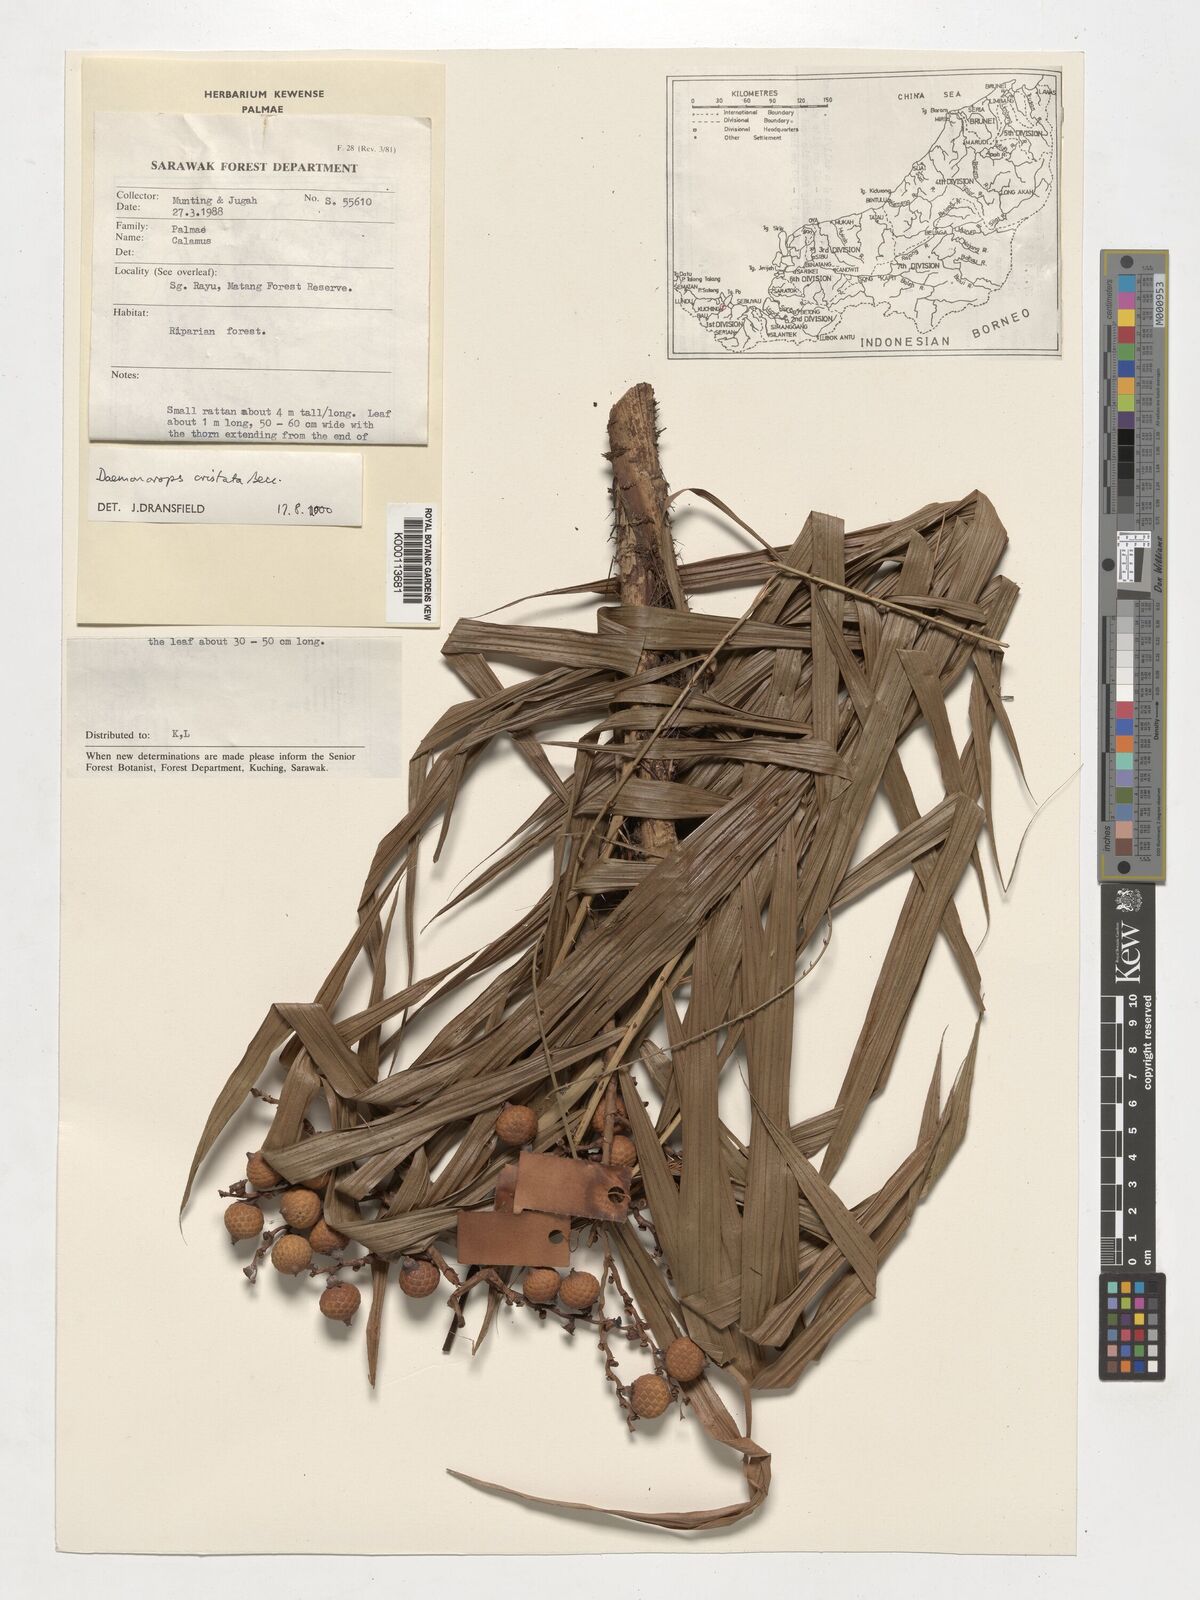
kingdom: Plantae
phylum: Tracheophyta
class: Liliopsida
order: Arecales
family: Arecaceae
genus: Calamus
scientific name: Calamus cristatus
